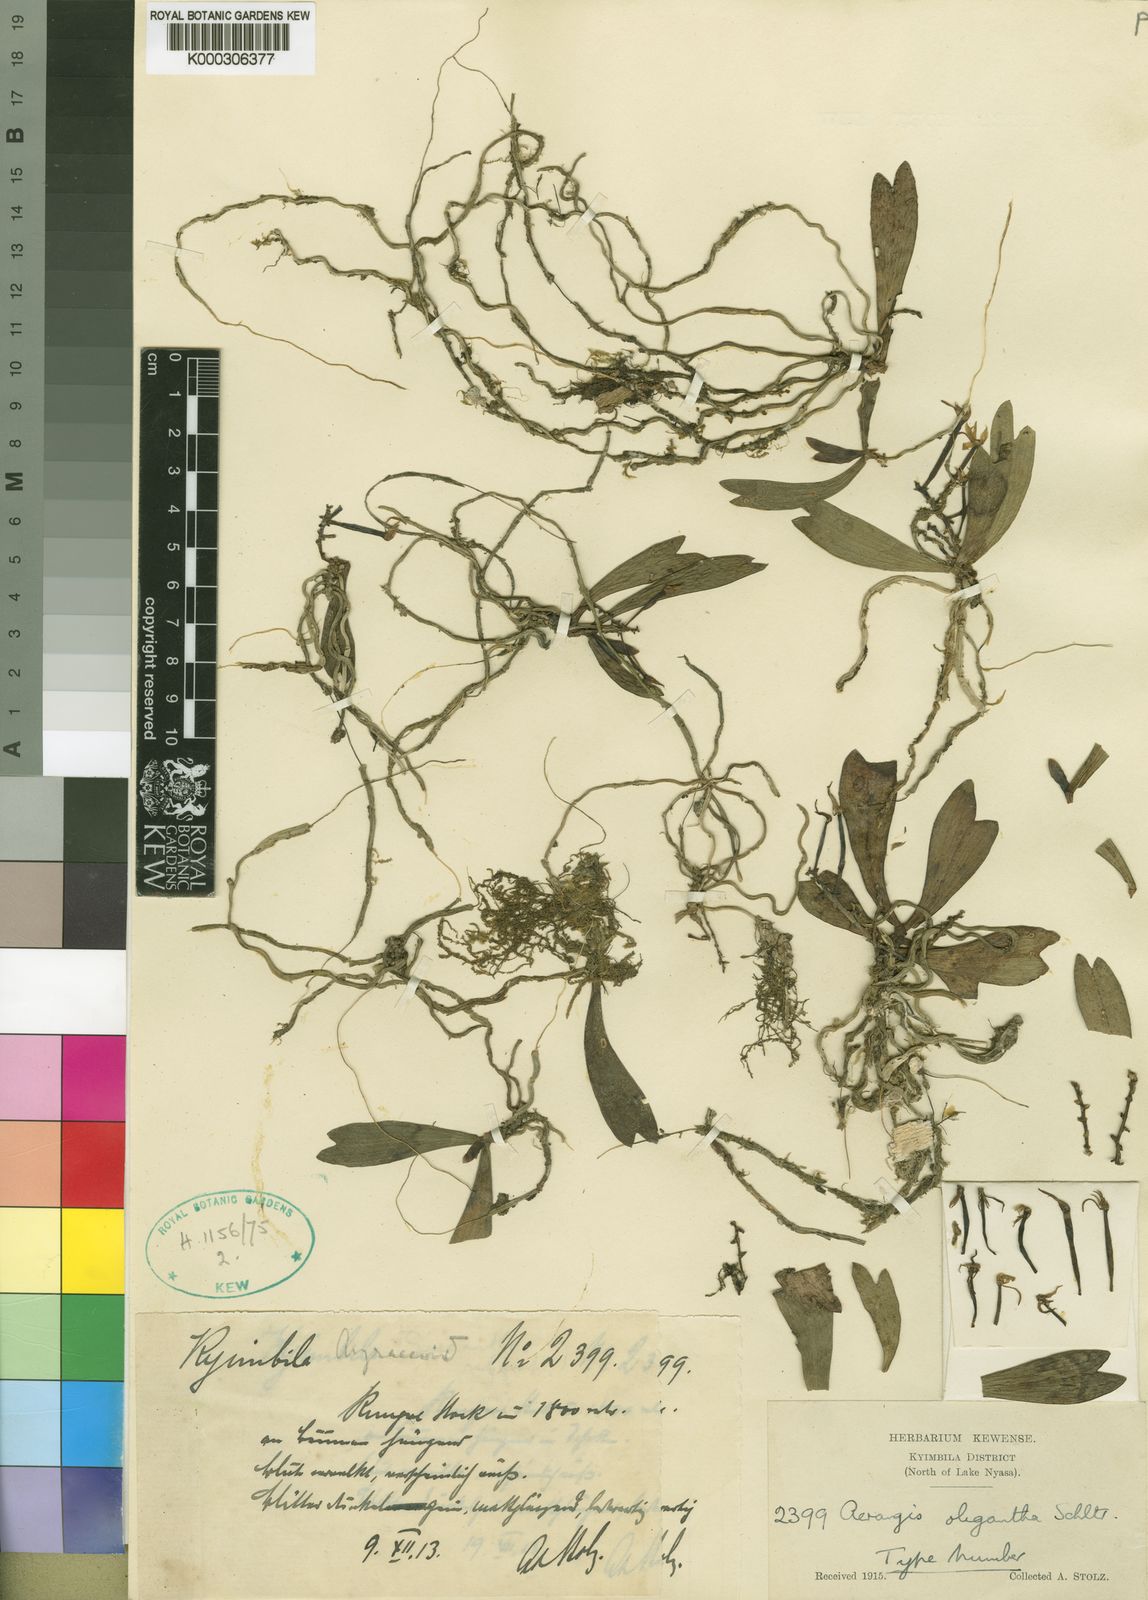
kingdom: Plantae
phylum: Tracheophyta
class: Liliopsida
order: Asparagales
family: Orchidaceae
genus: Aerangis
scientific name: Aerangis oligantha
